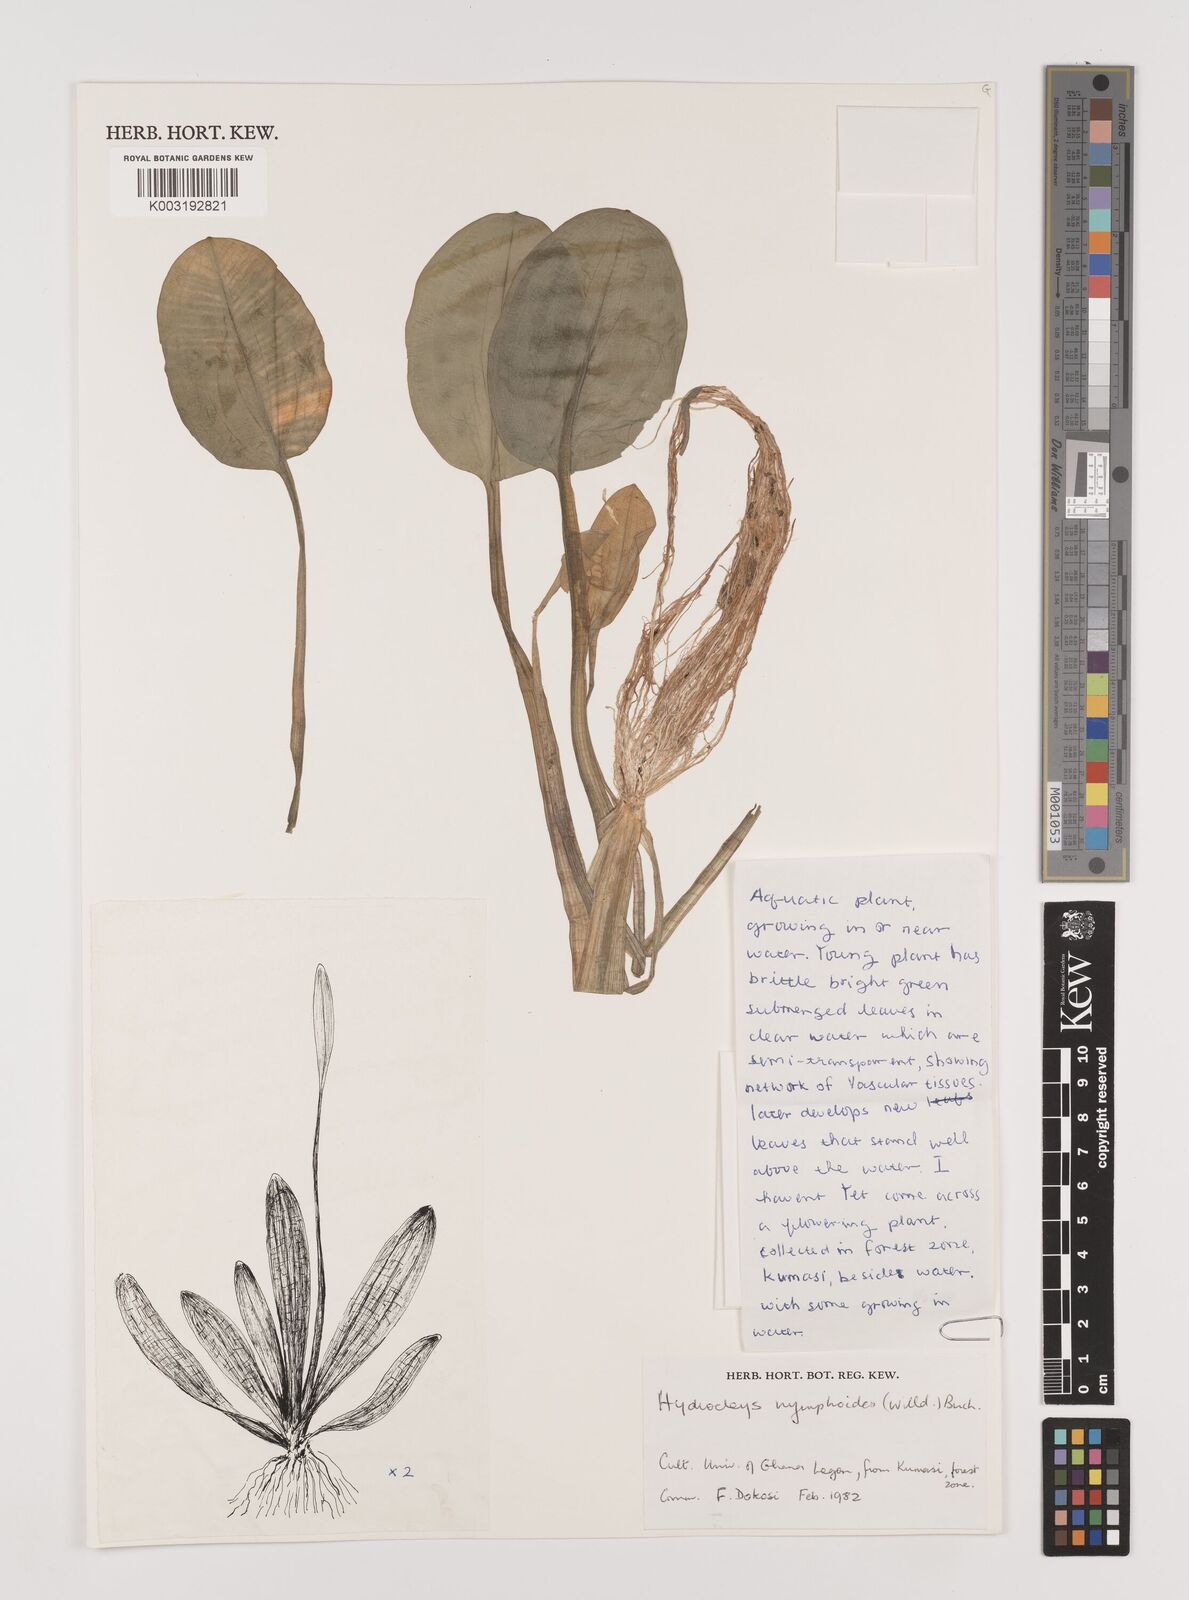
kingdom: Plantae
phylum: Tracheophyta
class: Liliopsida
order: Alismatales
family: Alismataceae
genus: Hydrocleys
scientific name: Hydrocleys nymphoides
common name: Water-poppy
